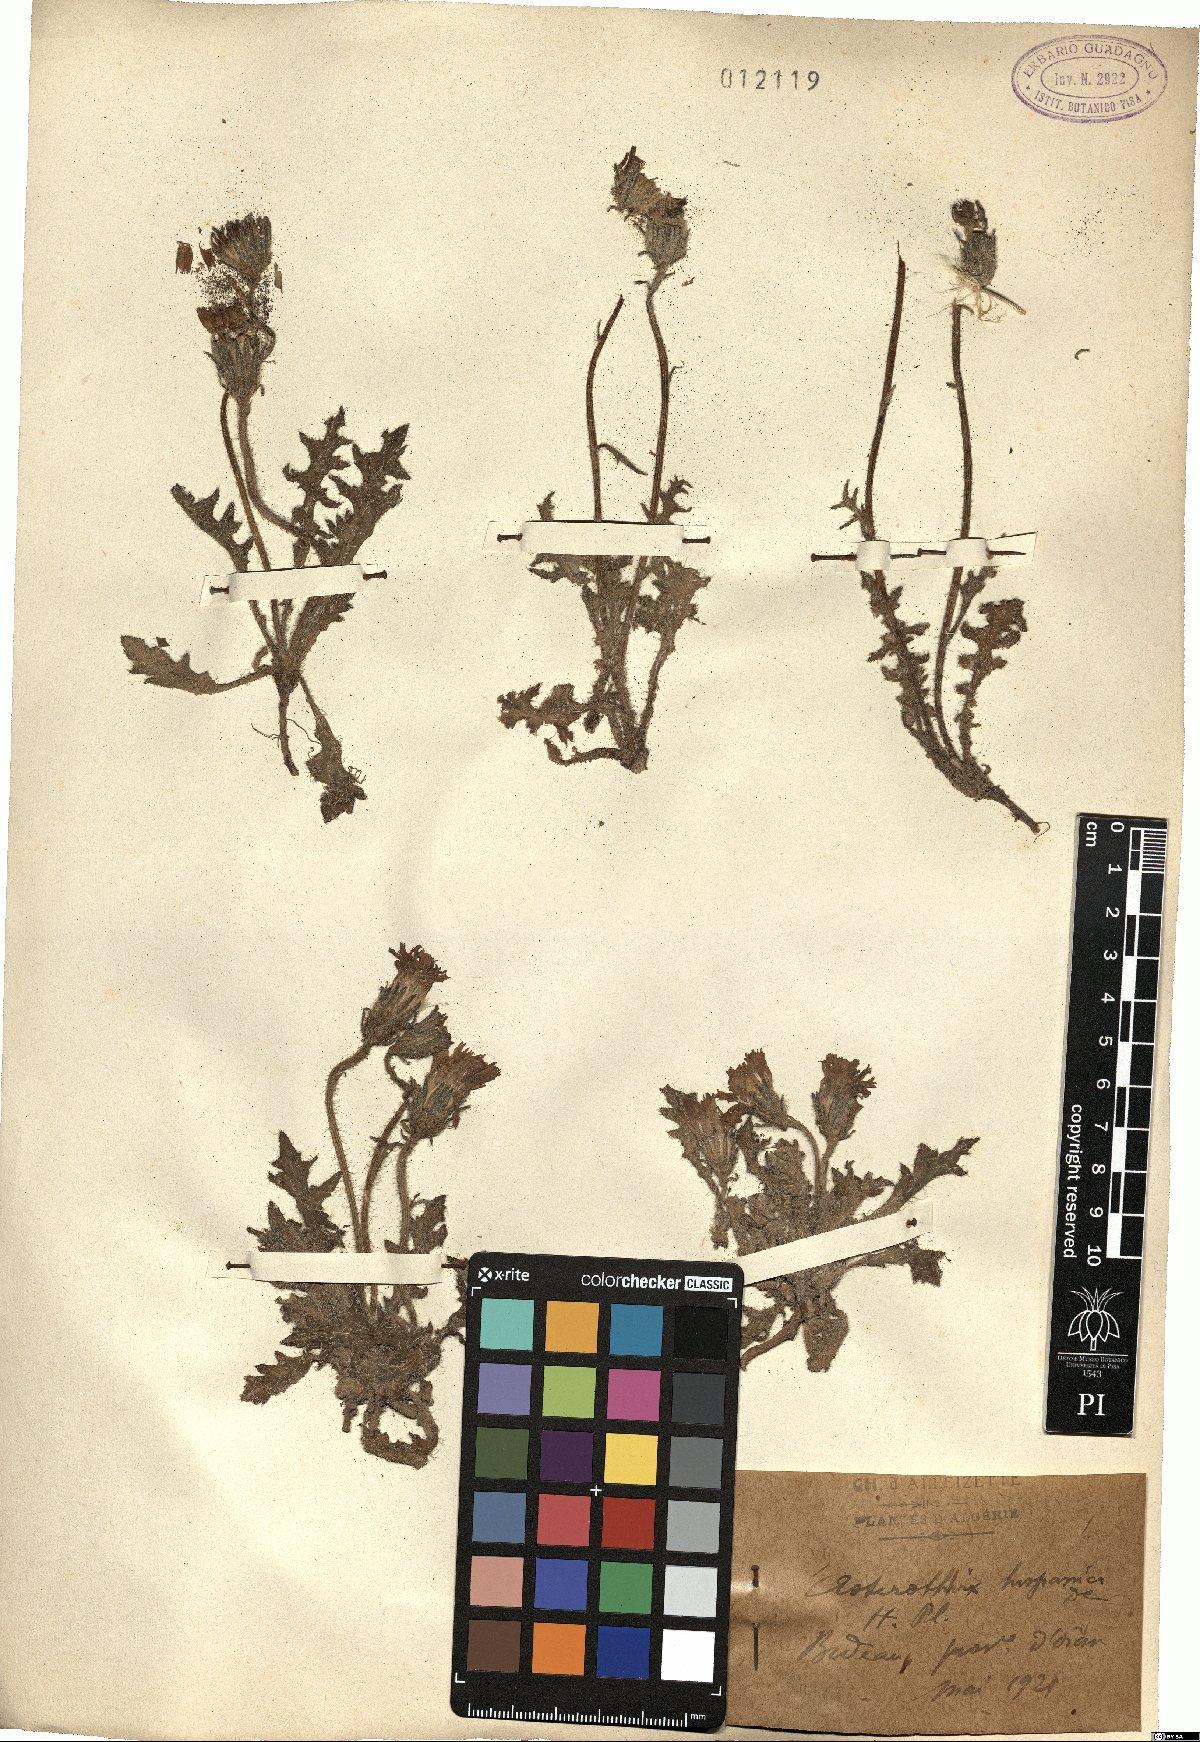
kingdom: Plantae
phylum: Tracheophyta
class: Magnoliopsida
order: Asterales
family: Asteraceae
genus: Picris
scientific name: Picris hispanica
